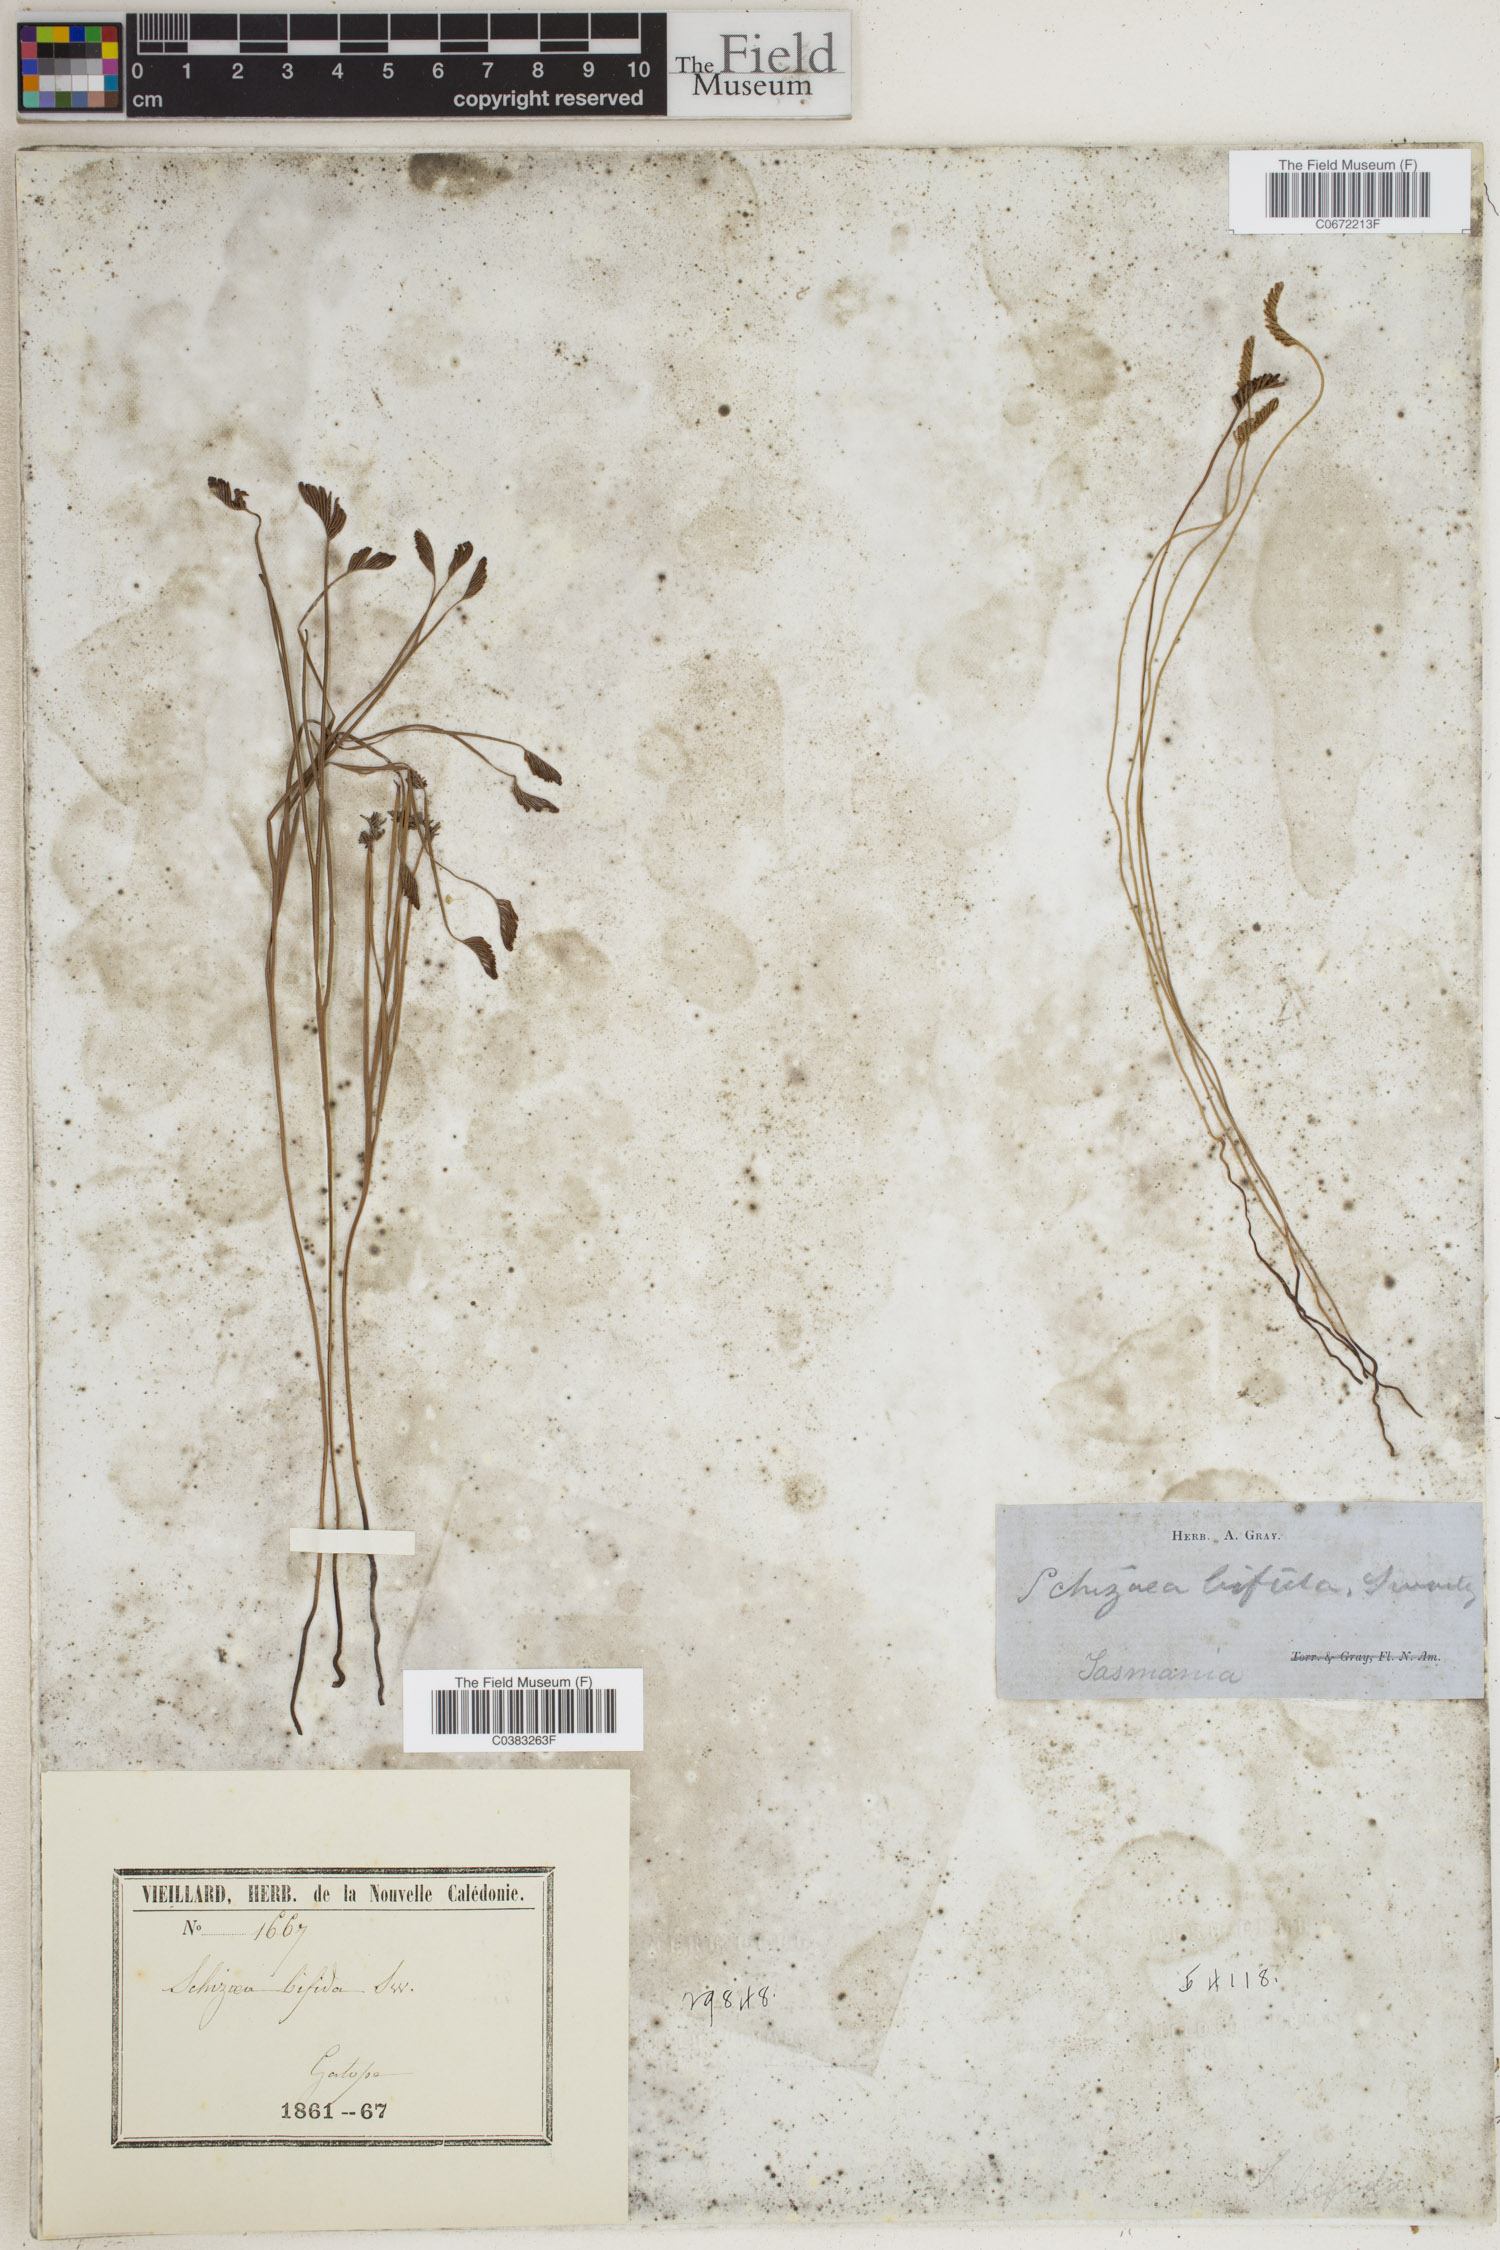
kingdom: Plantae
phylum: Tracheophyta
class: Polypodiopsida
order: Schizaeales
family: Schizaeaceae
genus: Schizaea
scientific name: Schizaea bifida
